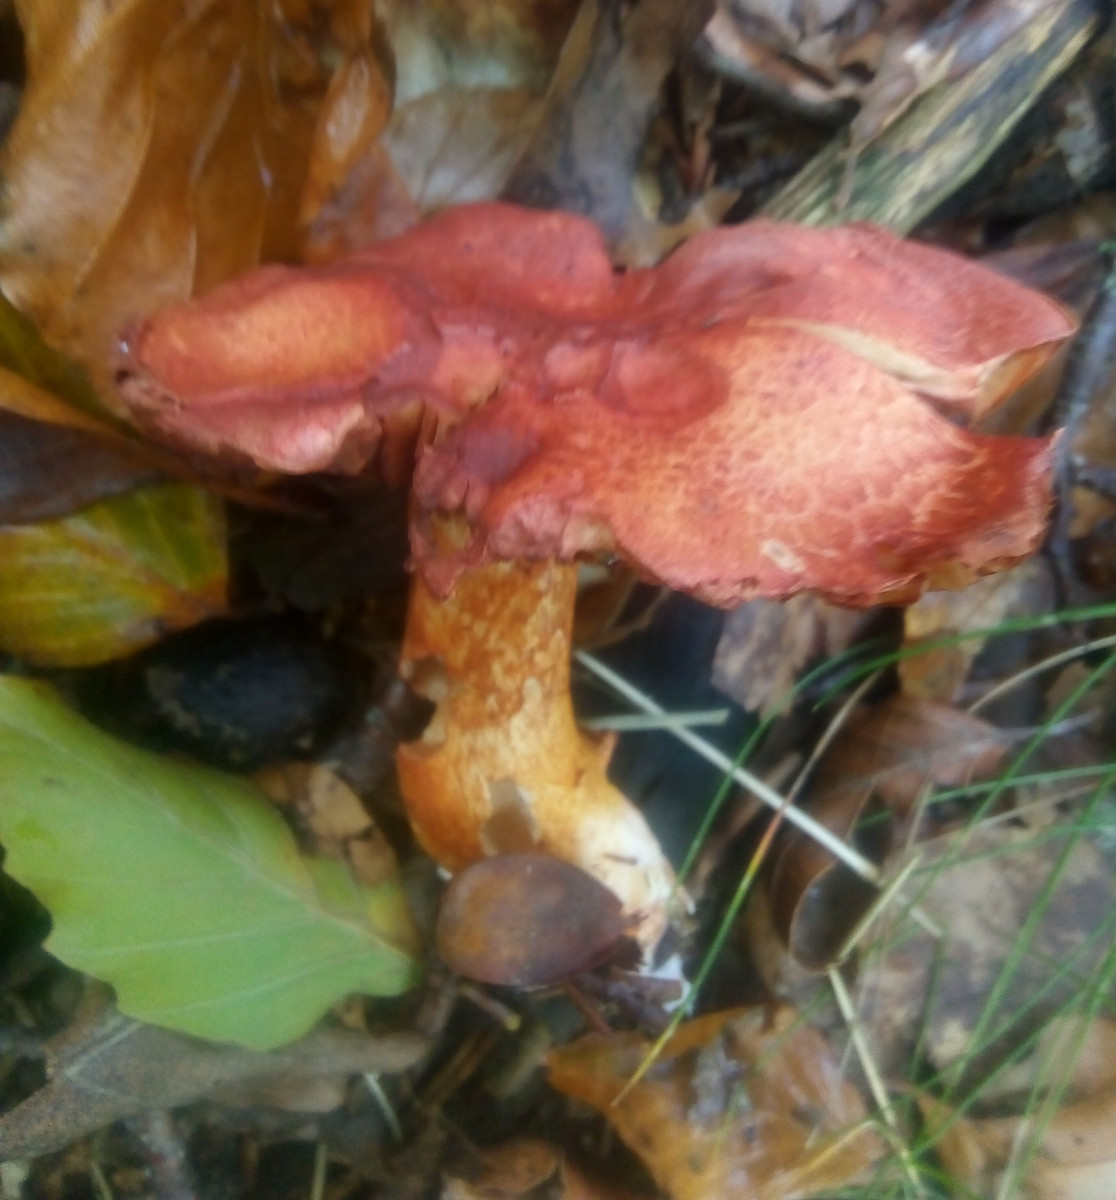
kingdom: Fungi
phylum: Basidiomycota
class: Agaricomycetes
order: Agaricales
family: Cortinariaceae
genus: Cortinarius
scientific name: Cortinarius bolaris
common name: cinnoberskællet slørhat
